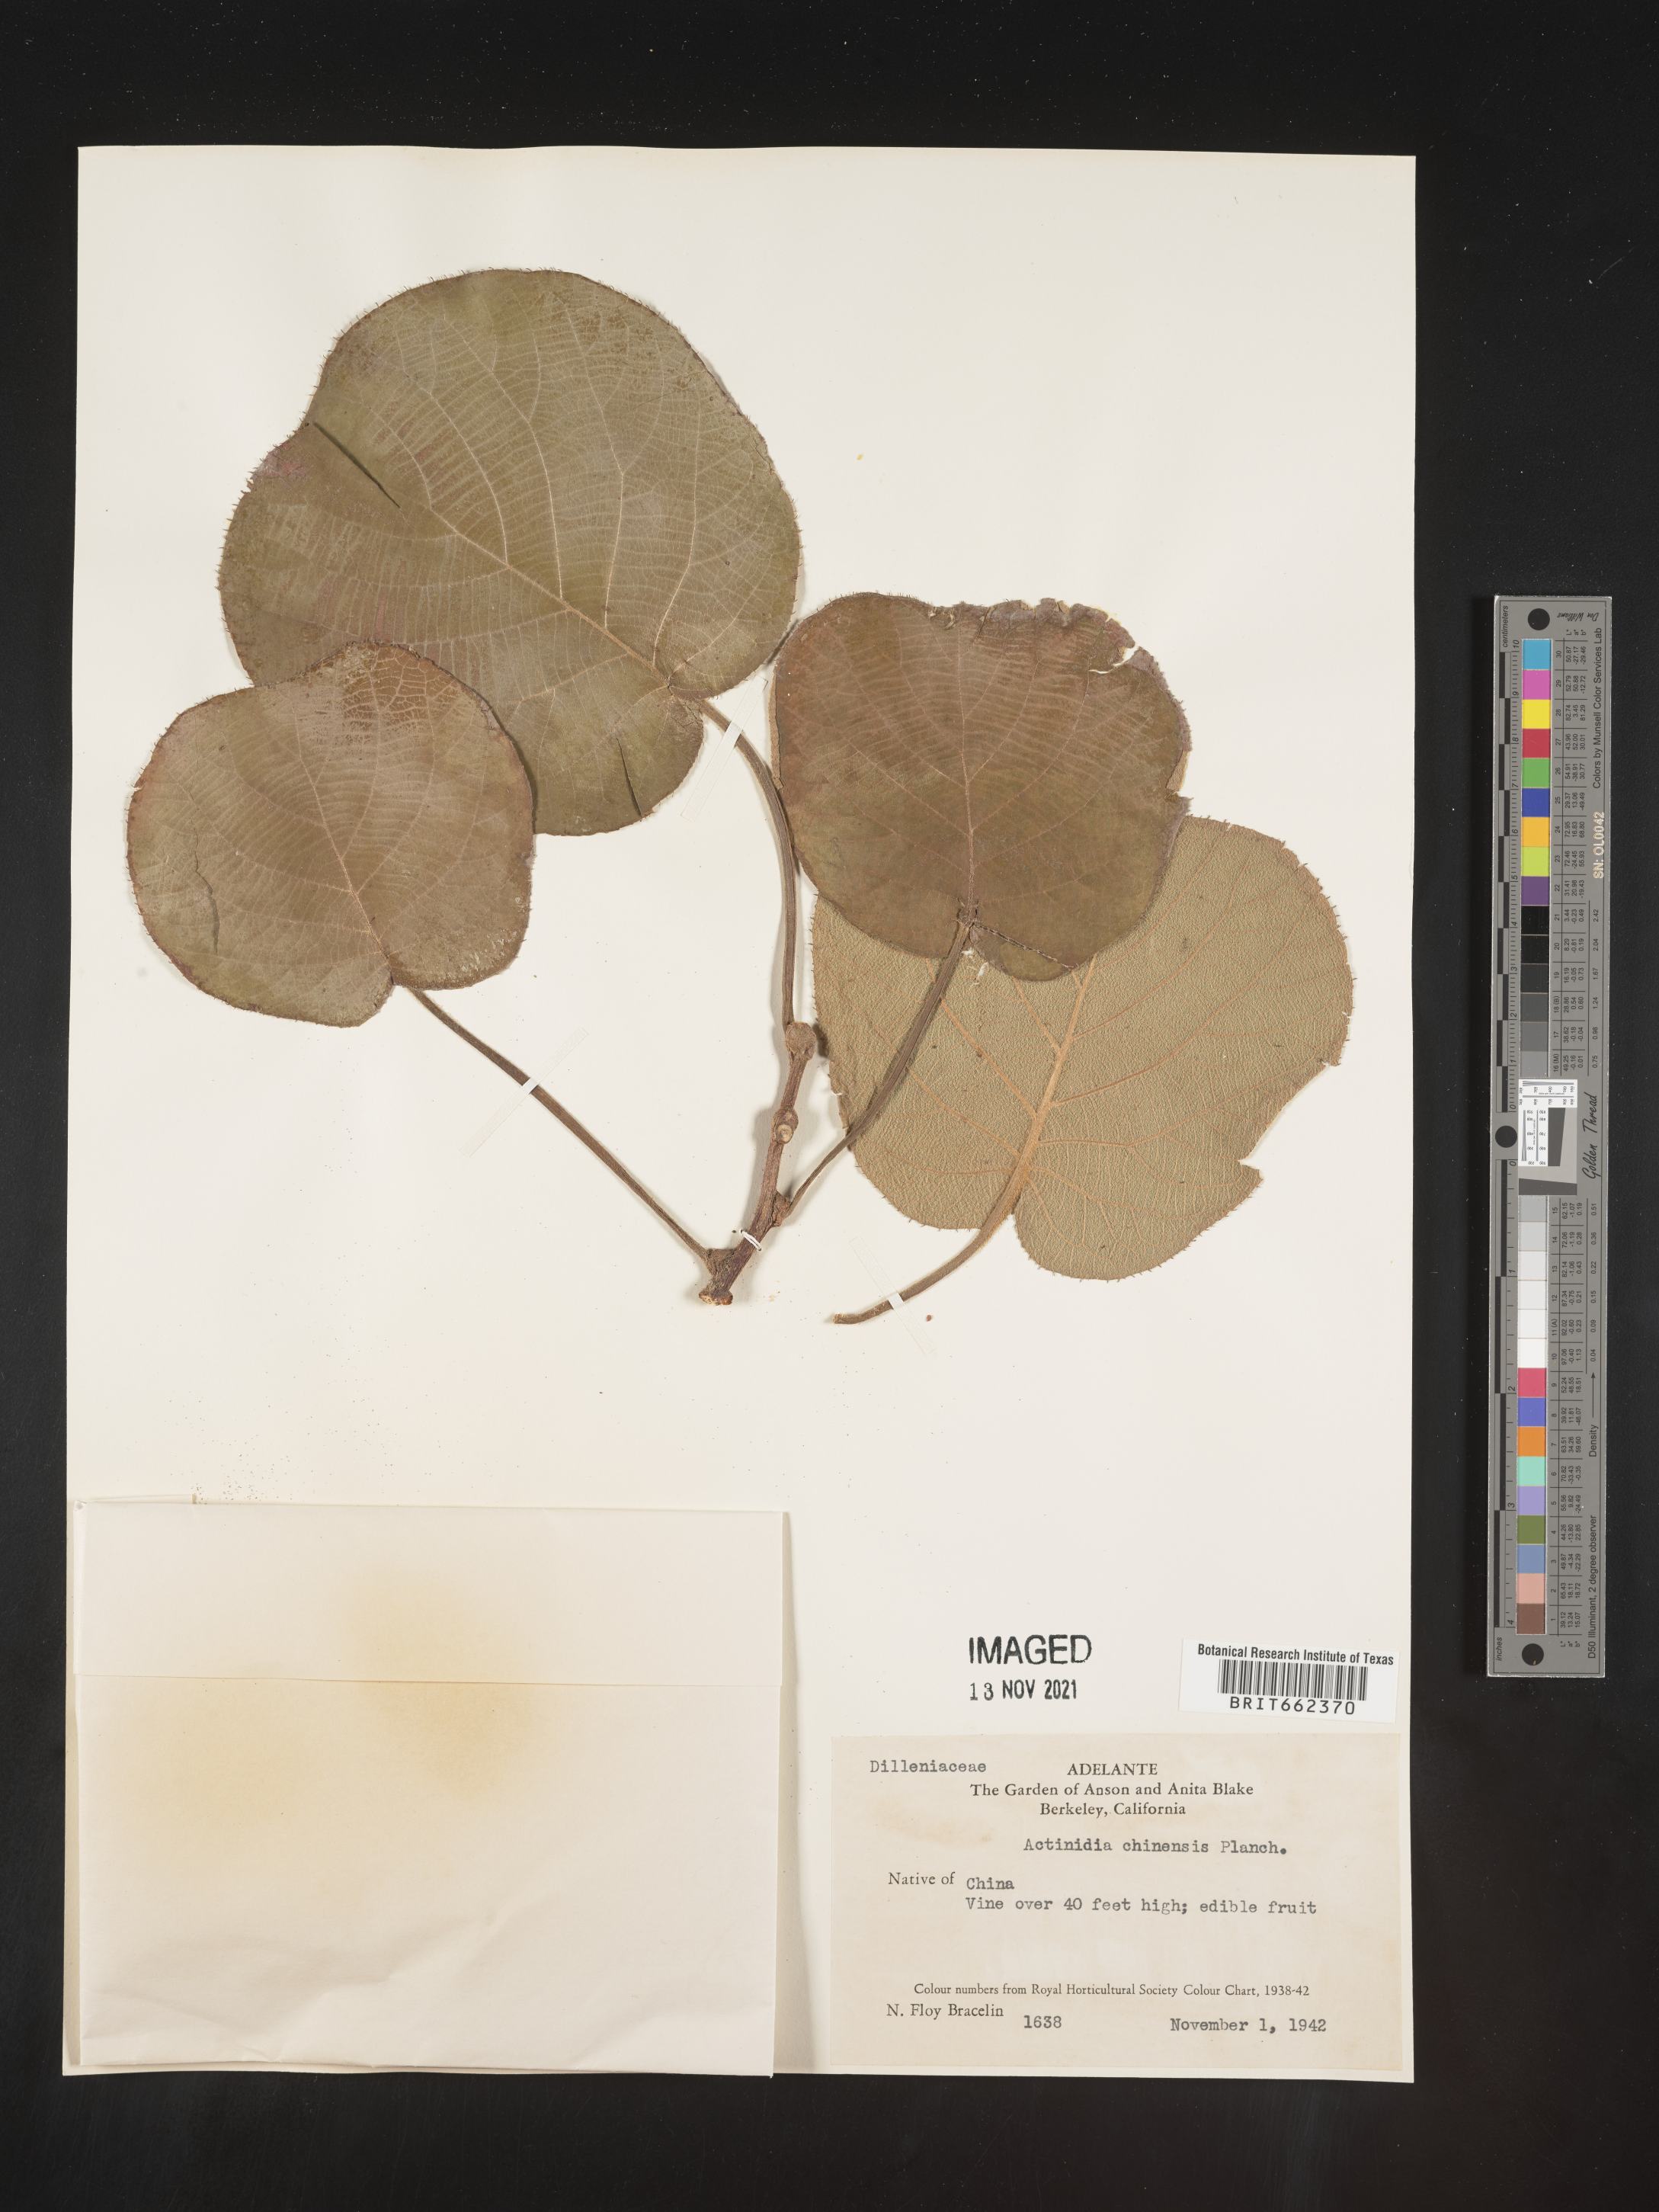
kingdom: Plantae
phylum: Tracheophyta
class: Magnoliopsida
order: Ericales
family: Actinidiaceae
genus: Actinidia
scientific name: Actinidia
